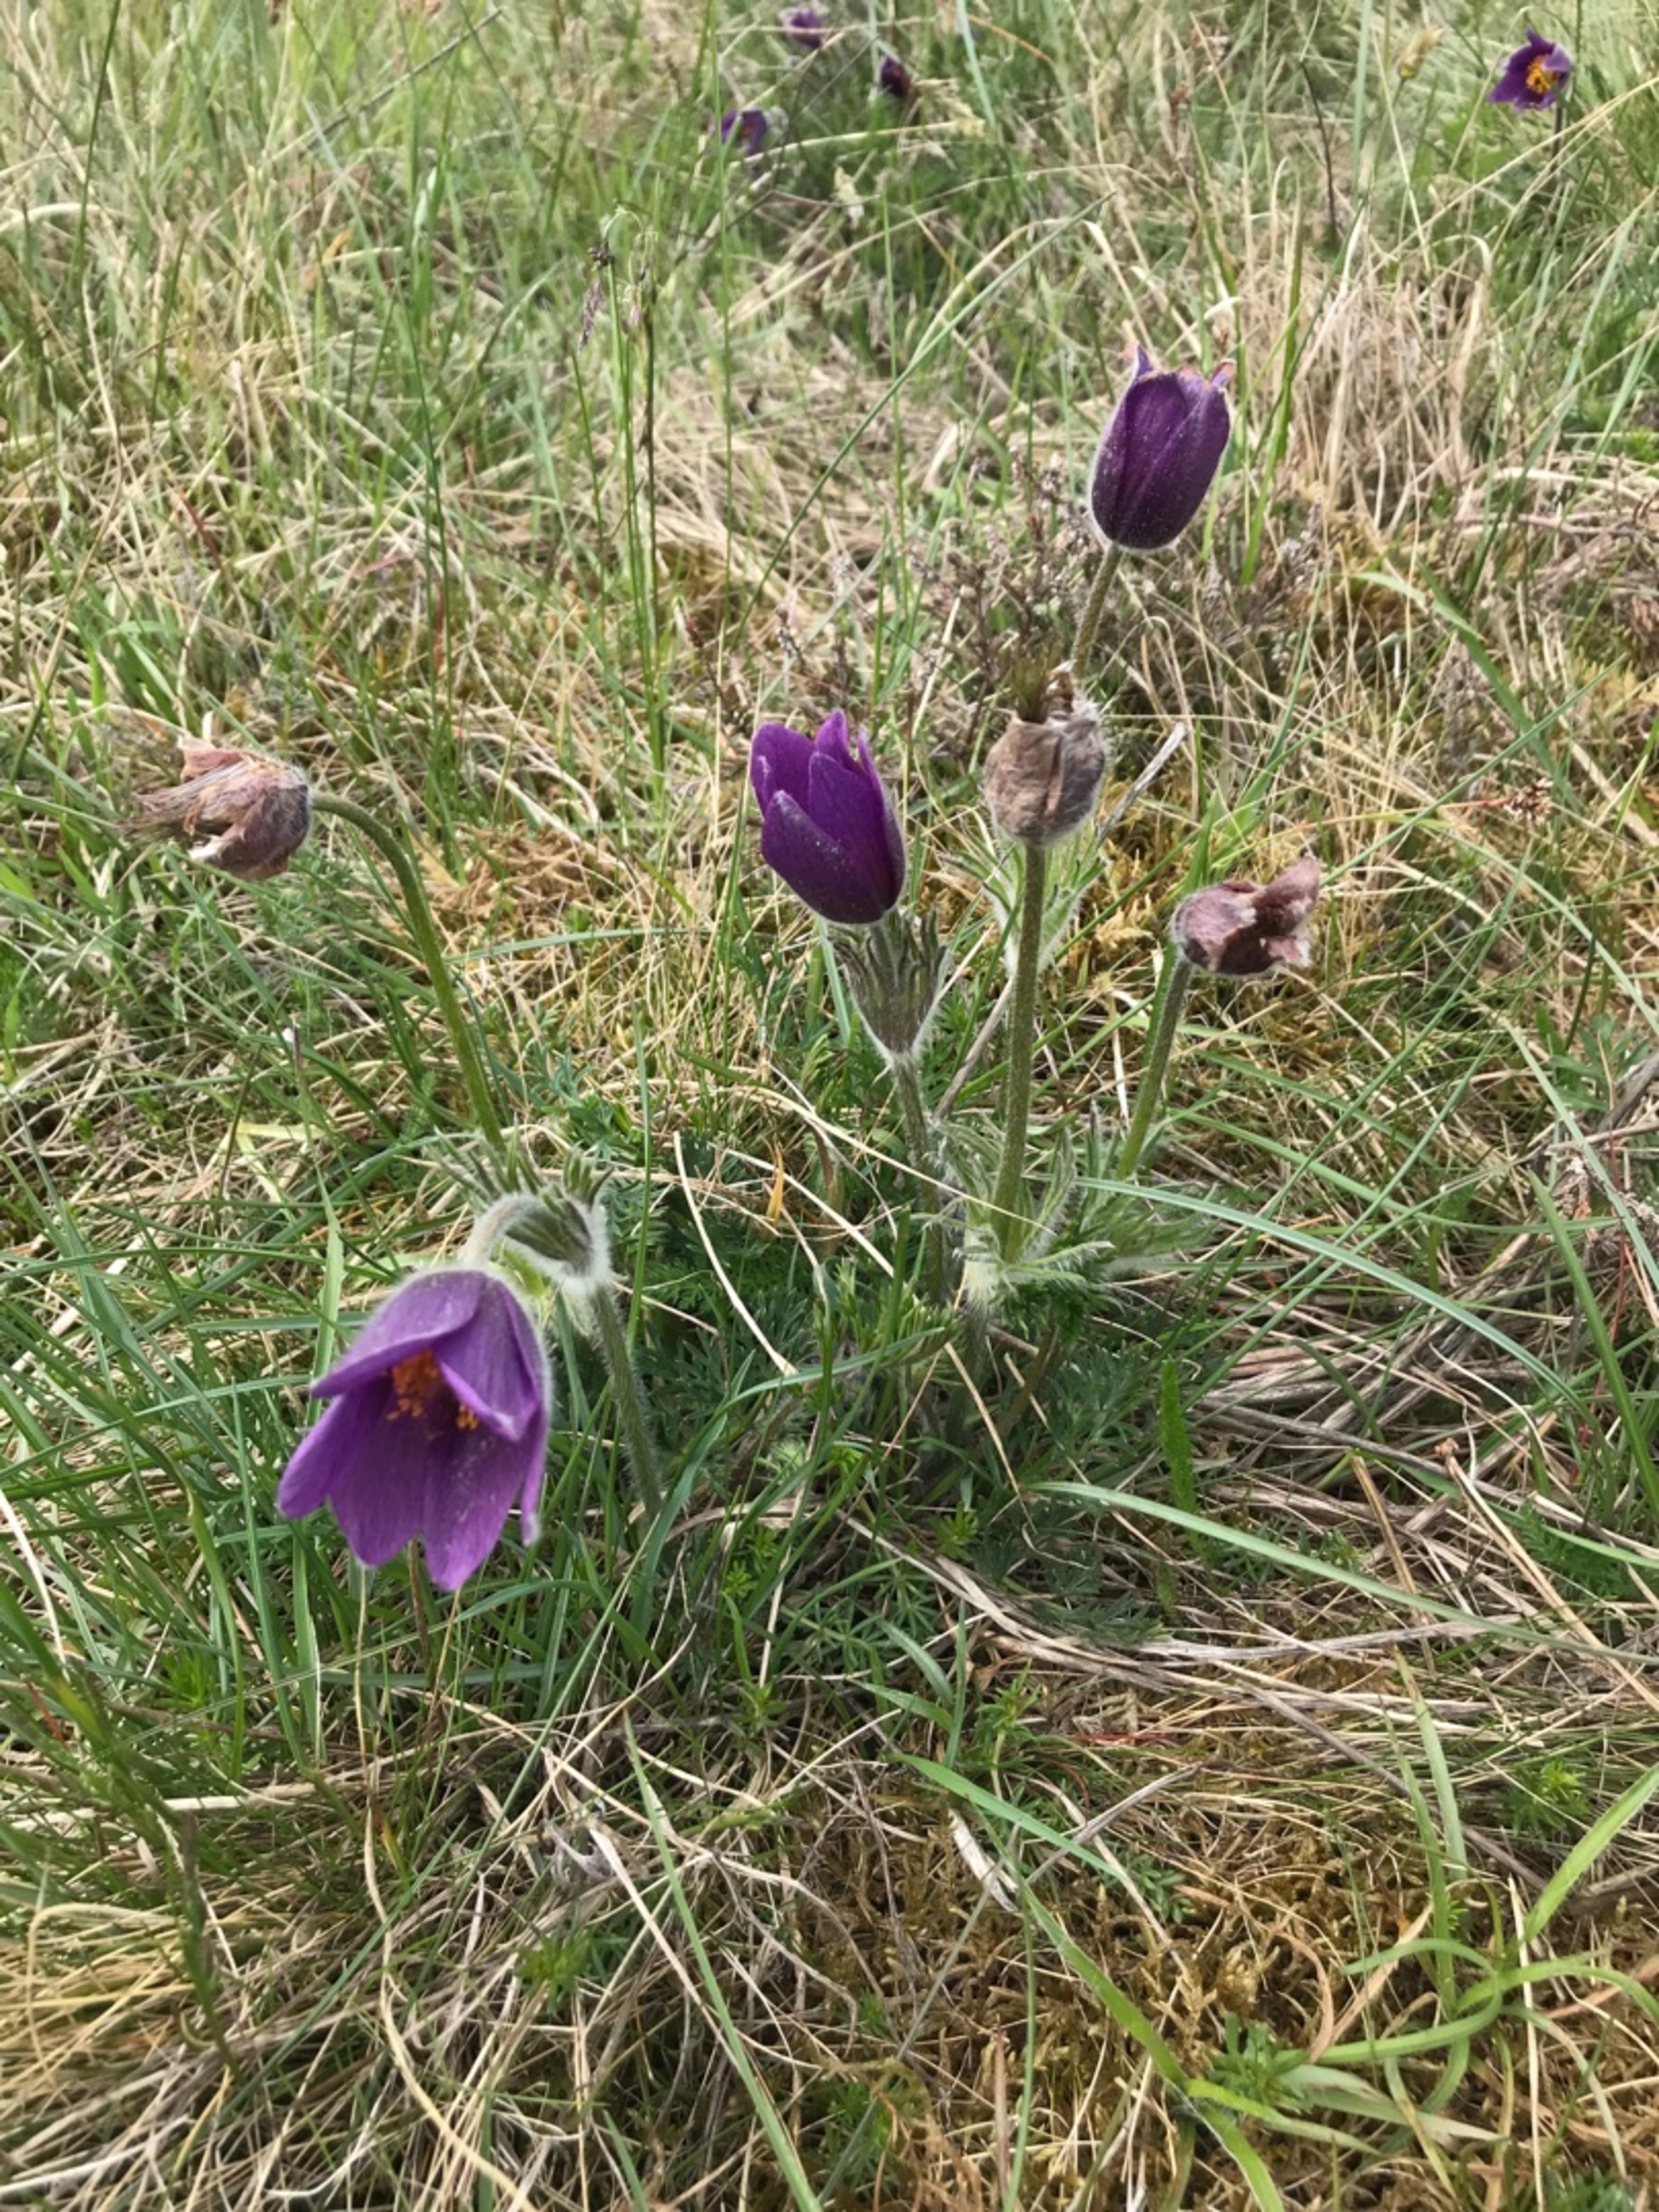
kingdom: Plantae
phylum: Tracheophyta
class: Magnoliopsida
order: Ranunculales
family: Ranunculaceae
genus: Pulsatilla
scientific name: Pulsatilla vulgaris
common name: Opret kobjælde
